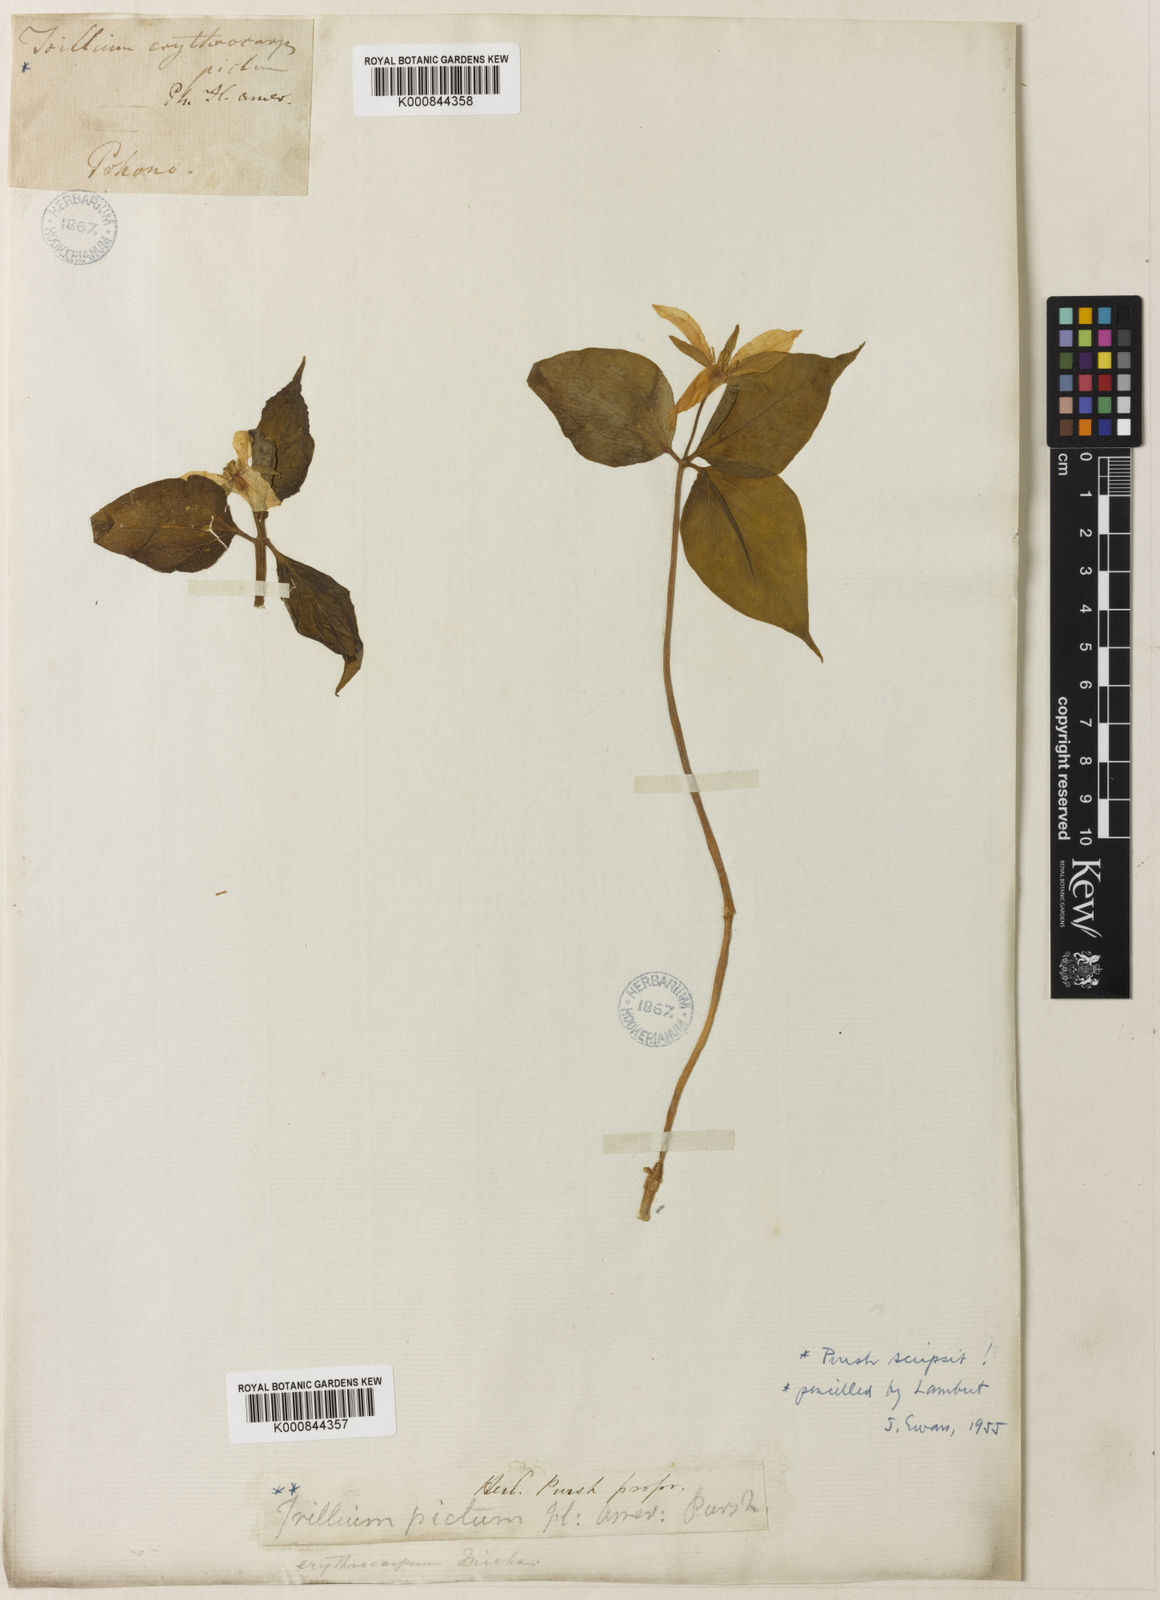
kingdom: Plantae
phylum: Tracheophyta
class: Liliopsida
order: Liliales
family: Melanthiaceae
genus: Trillium
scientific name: Trillium undulatum
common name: Paint trillium
